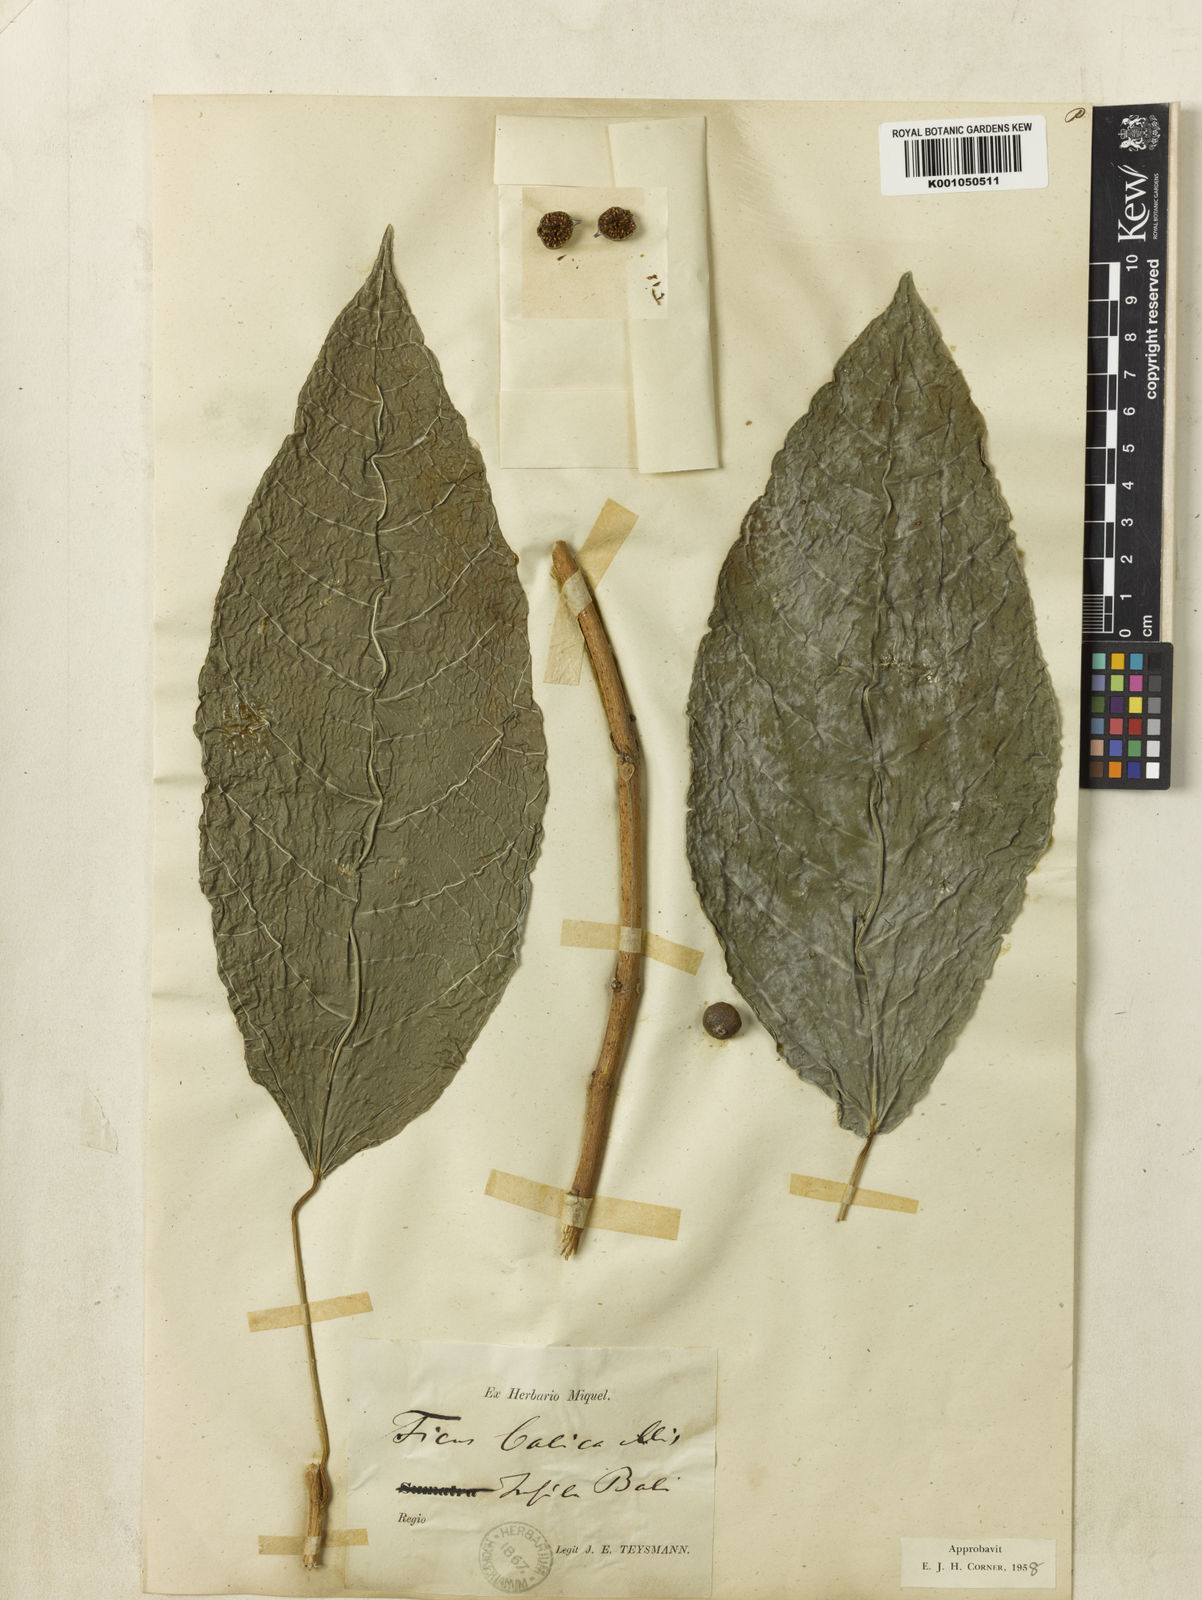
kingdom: Plantae
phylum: Tracheophyta
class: Magnoliopsida
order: Rosales
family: Moraceae
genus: Ficus
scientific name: Ficus balica
